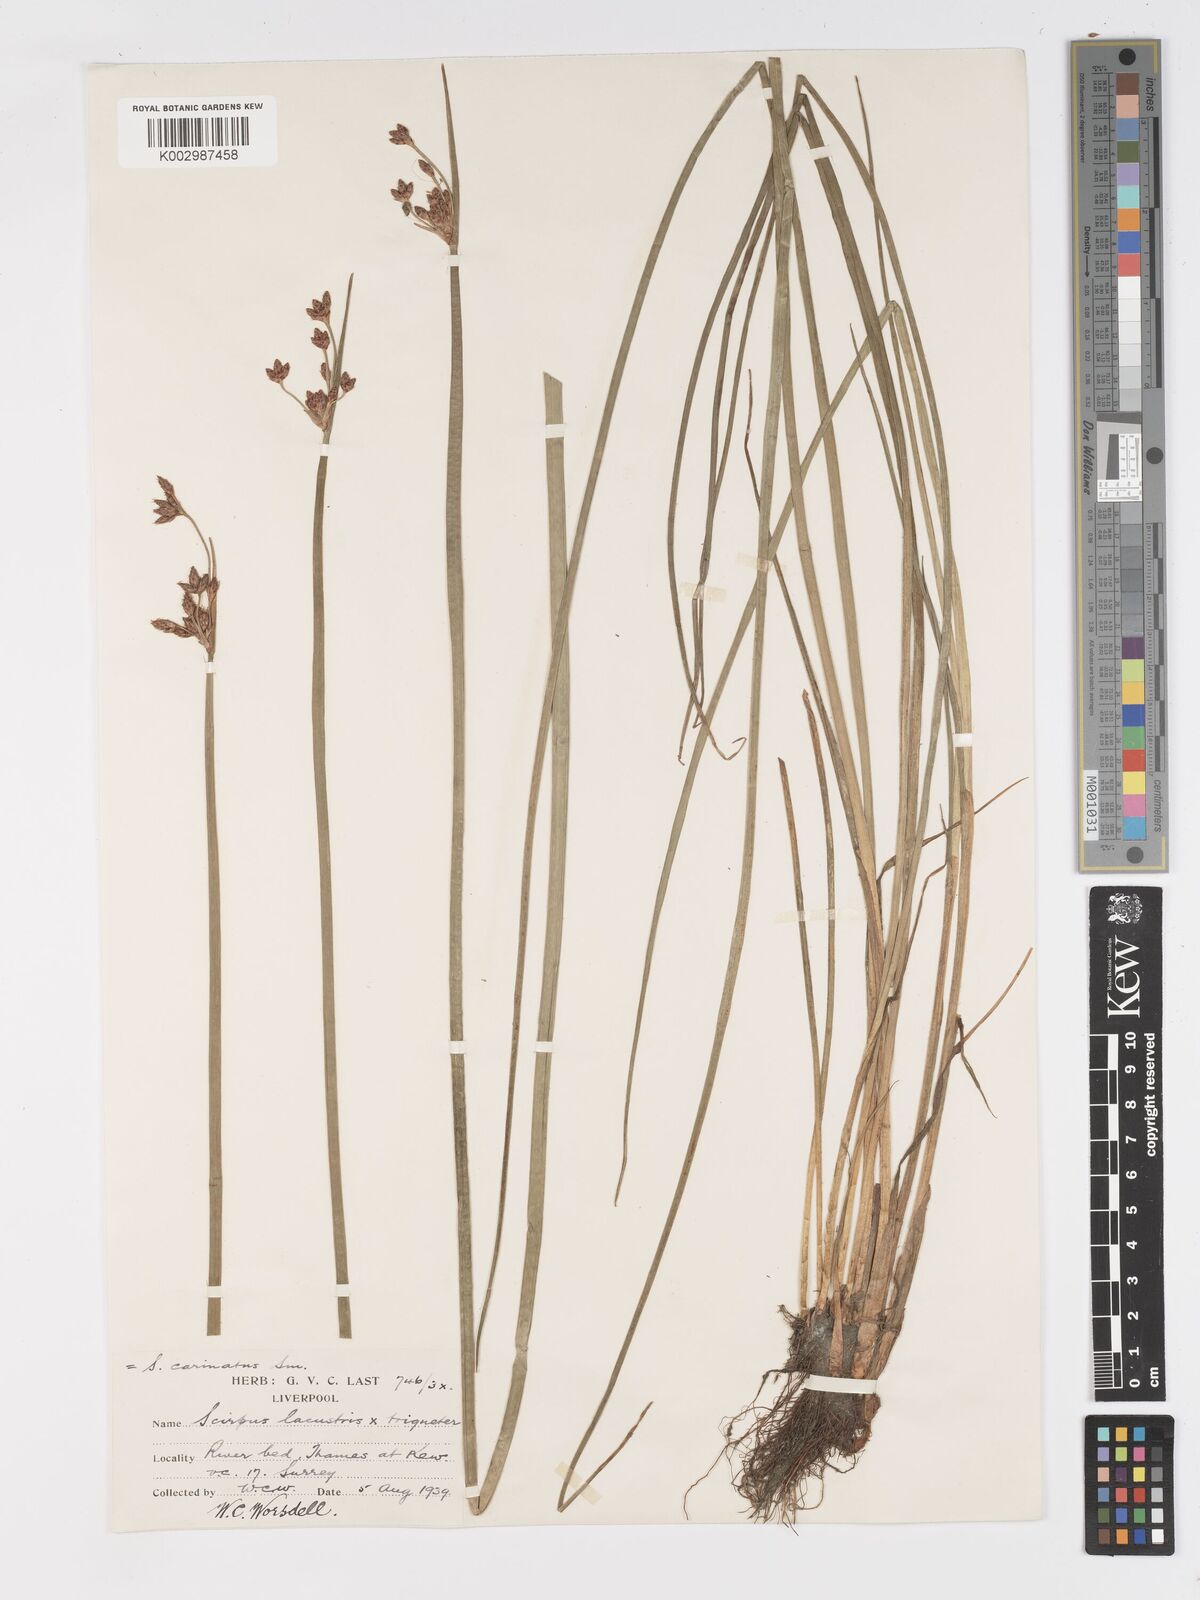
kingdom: Plantae
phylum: Tracheophyta
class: Liliopsida
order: Poales
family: Cyperaceae
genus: Schoenoplectus
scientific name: Schoenoplectus carinatus
